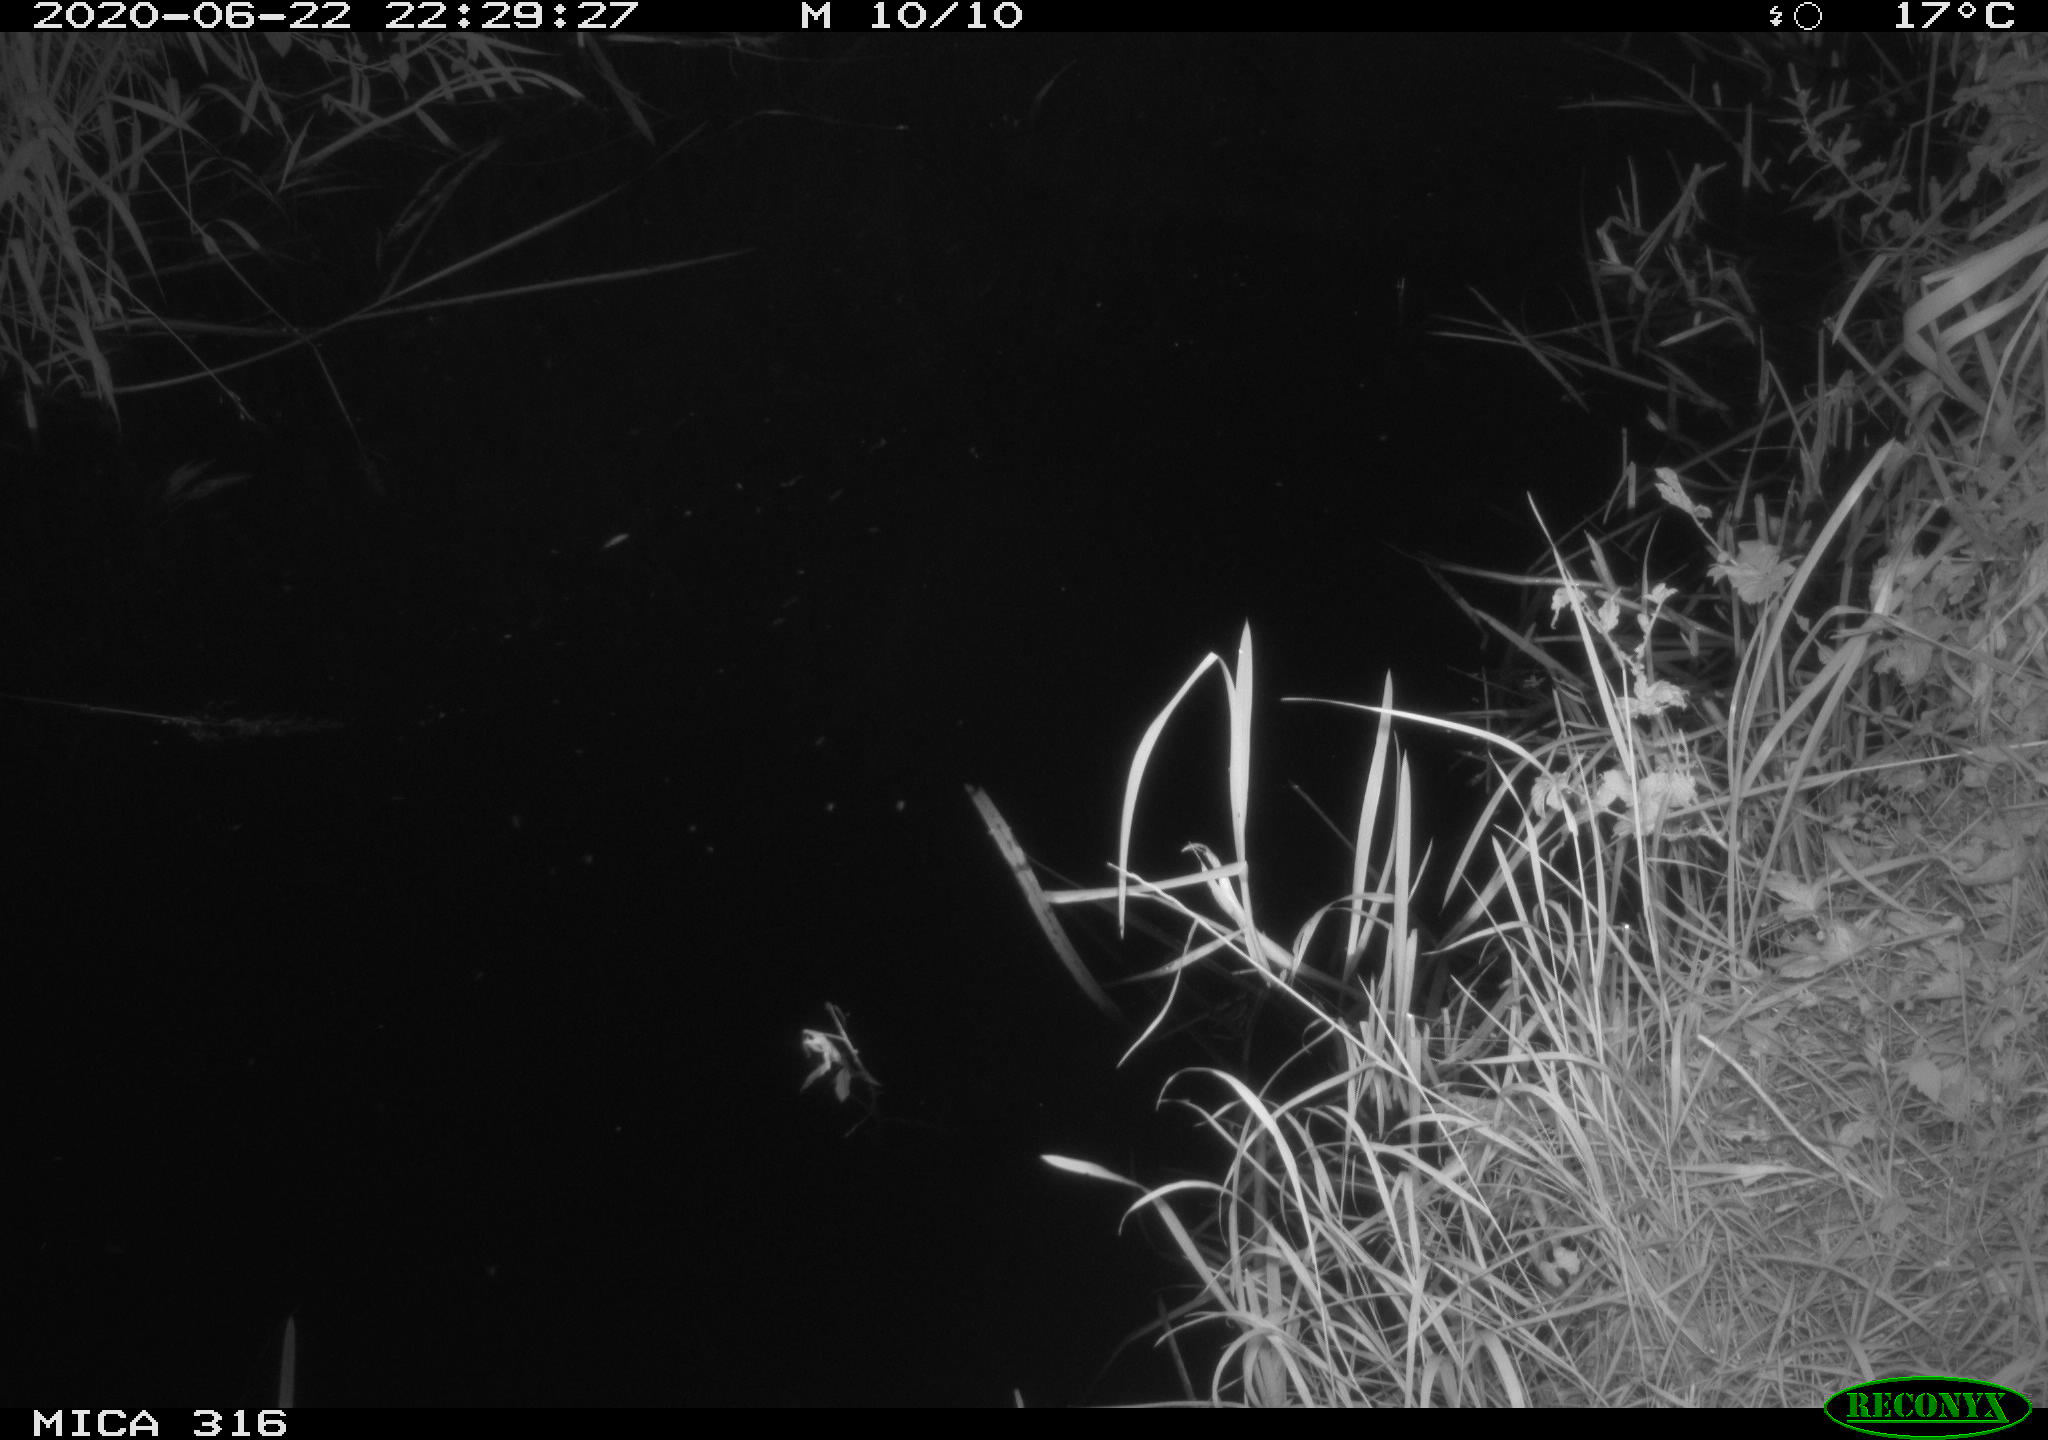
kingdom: Animalia
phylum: Chordata
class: Aves
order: Anseriformes
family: Anatidae
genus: Anas
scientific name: Anas platyrhynchos
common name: Mallard
